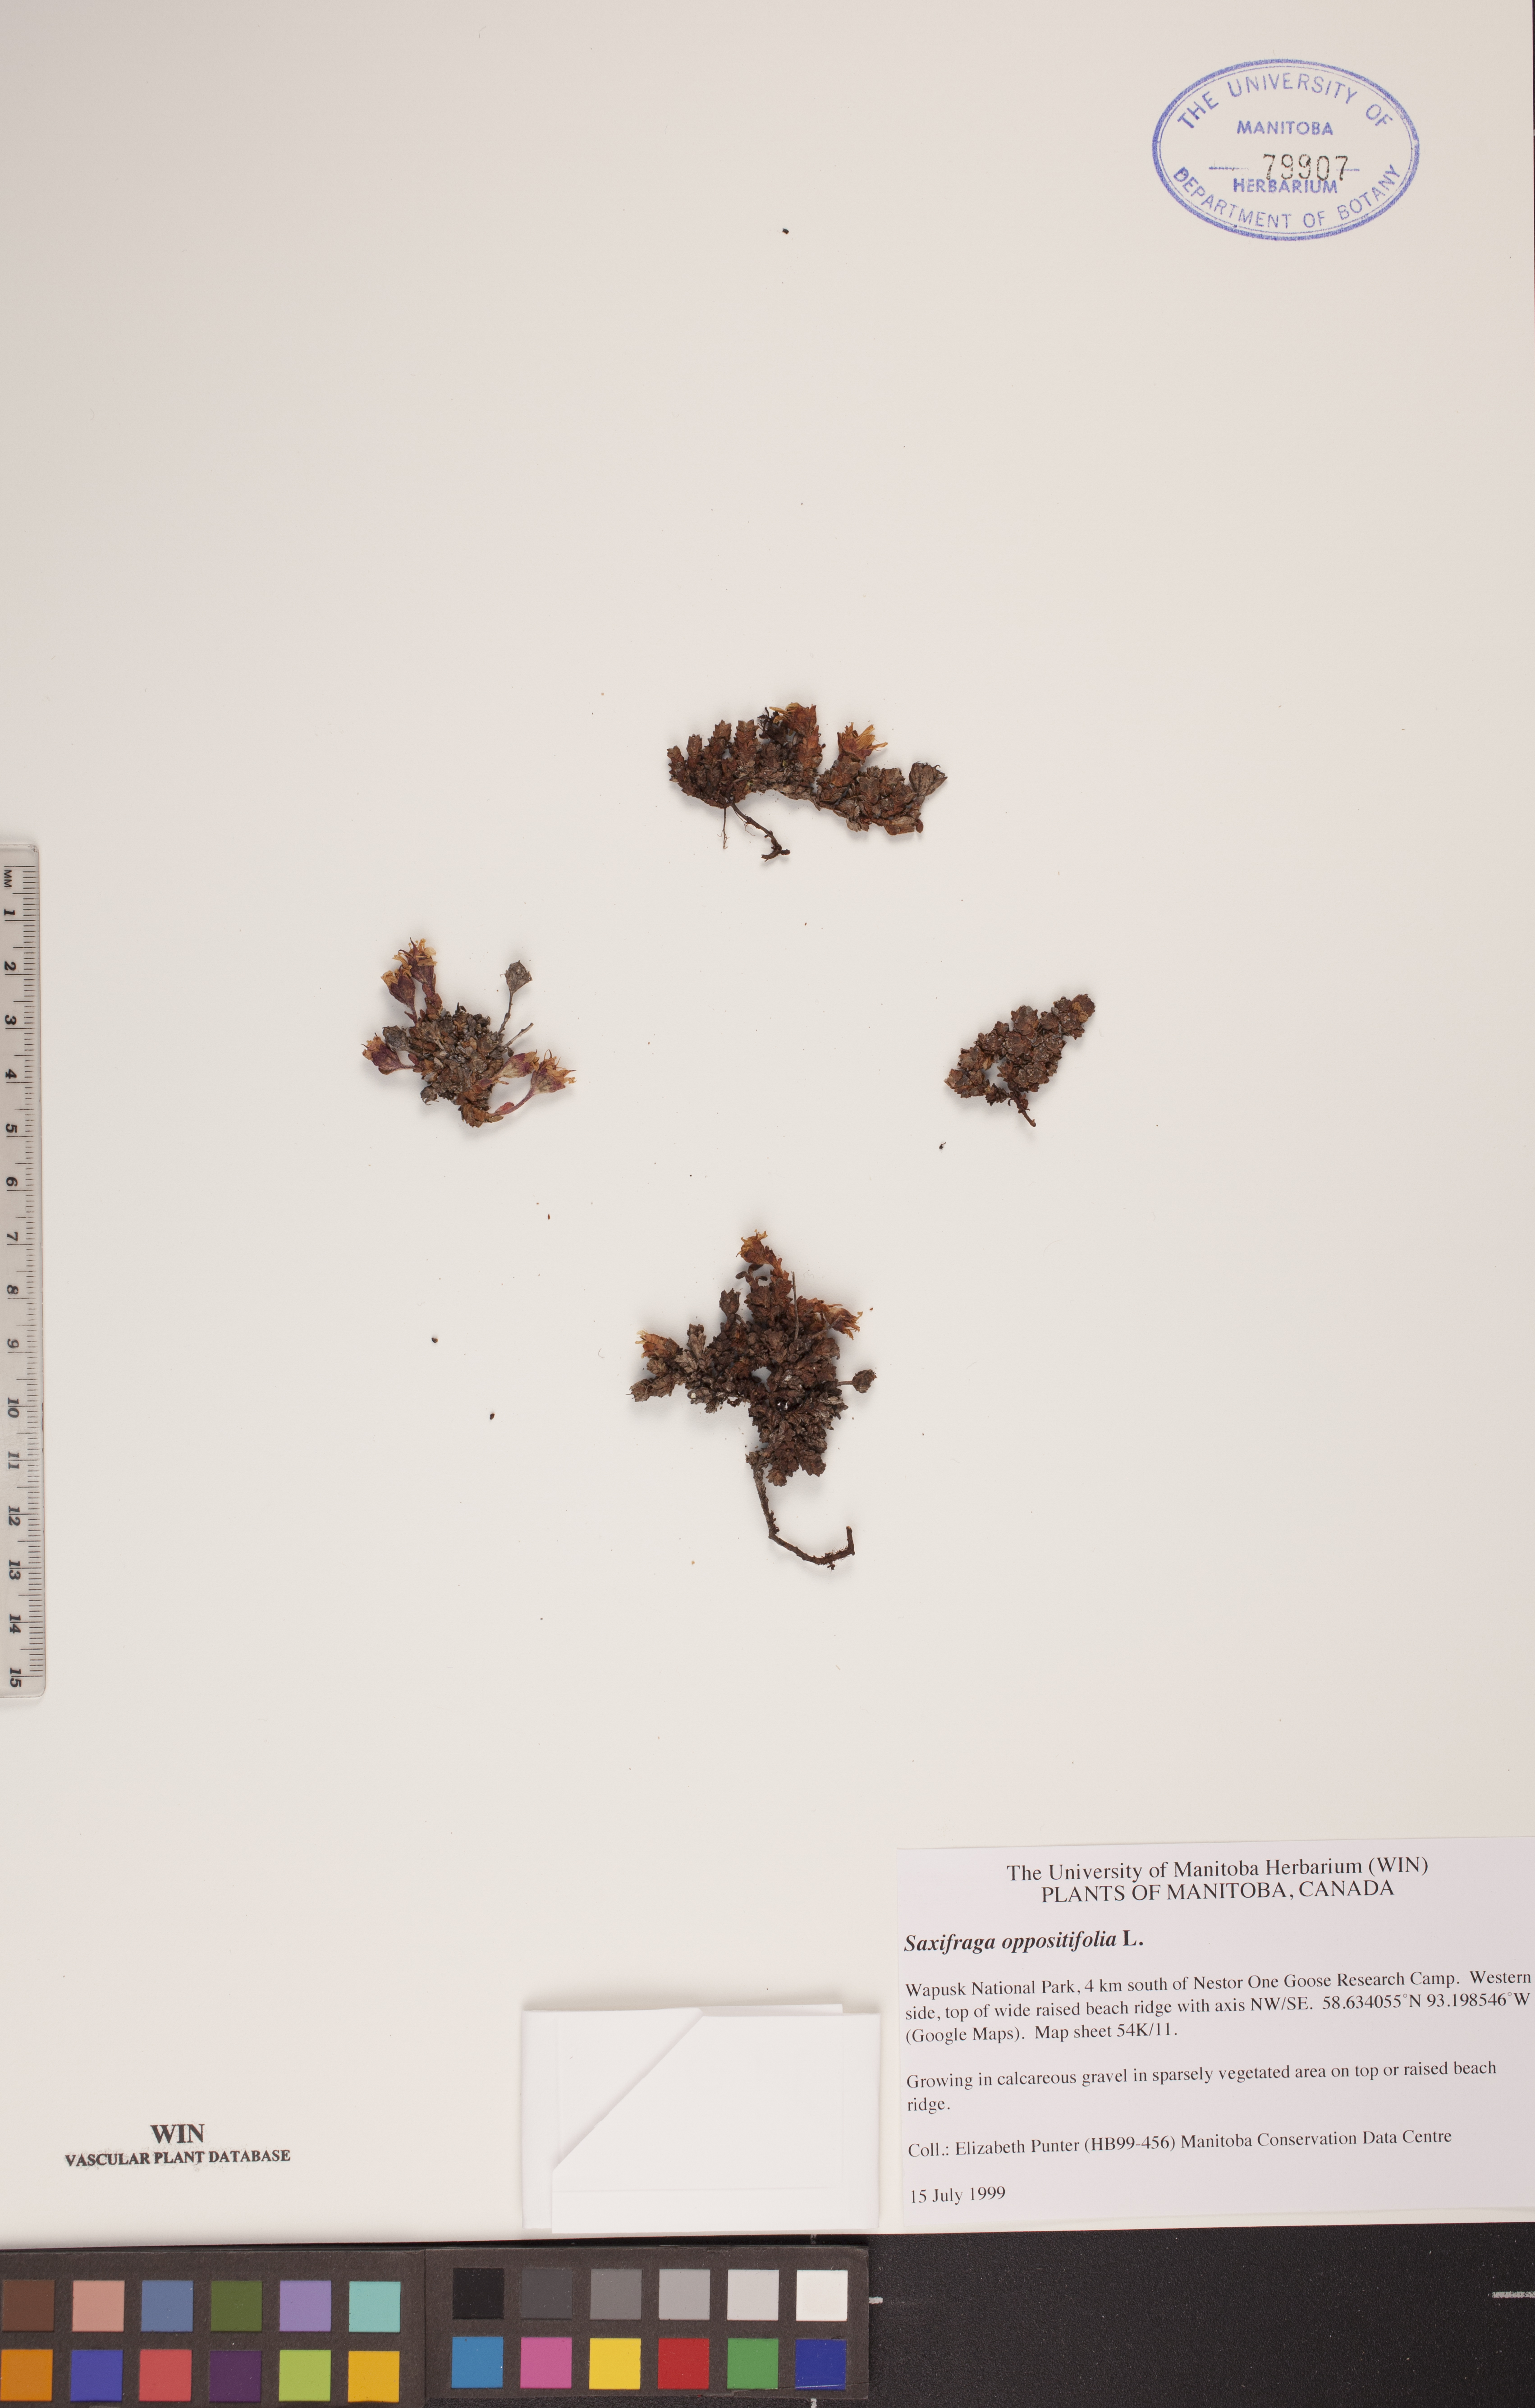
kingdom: Plantae
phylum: Tracheophyta
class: Magnoliopsida
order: Saxifragales
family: Saxifragaceae
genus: Saxifraga
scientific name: Saxifraga oppositifolia
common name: Purple saxifrage
